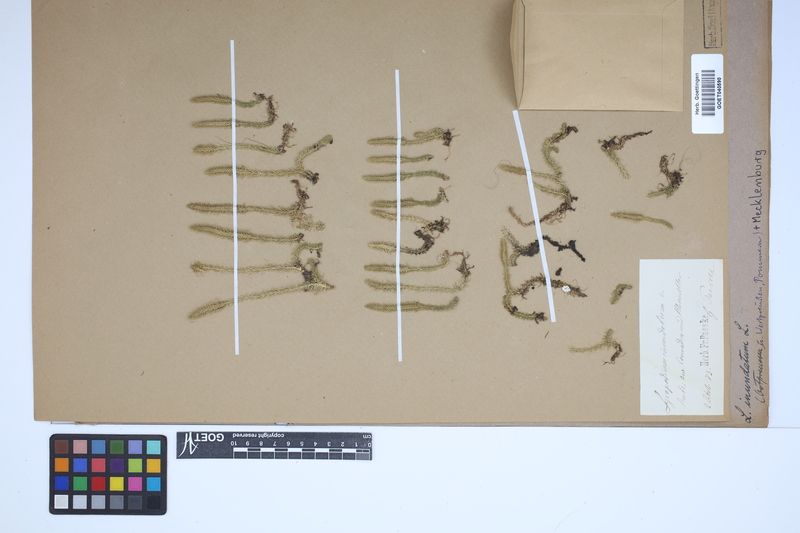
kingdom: Plantae
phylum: Tracheophyta
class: Lycopodiopsida
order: Lycopodiales
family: Lycopodiaceae
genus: Lycopodiella
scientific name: Lycopodiella inundata
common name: Marsh clubmoss
